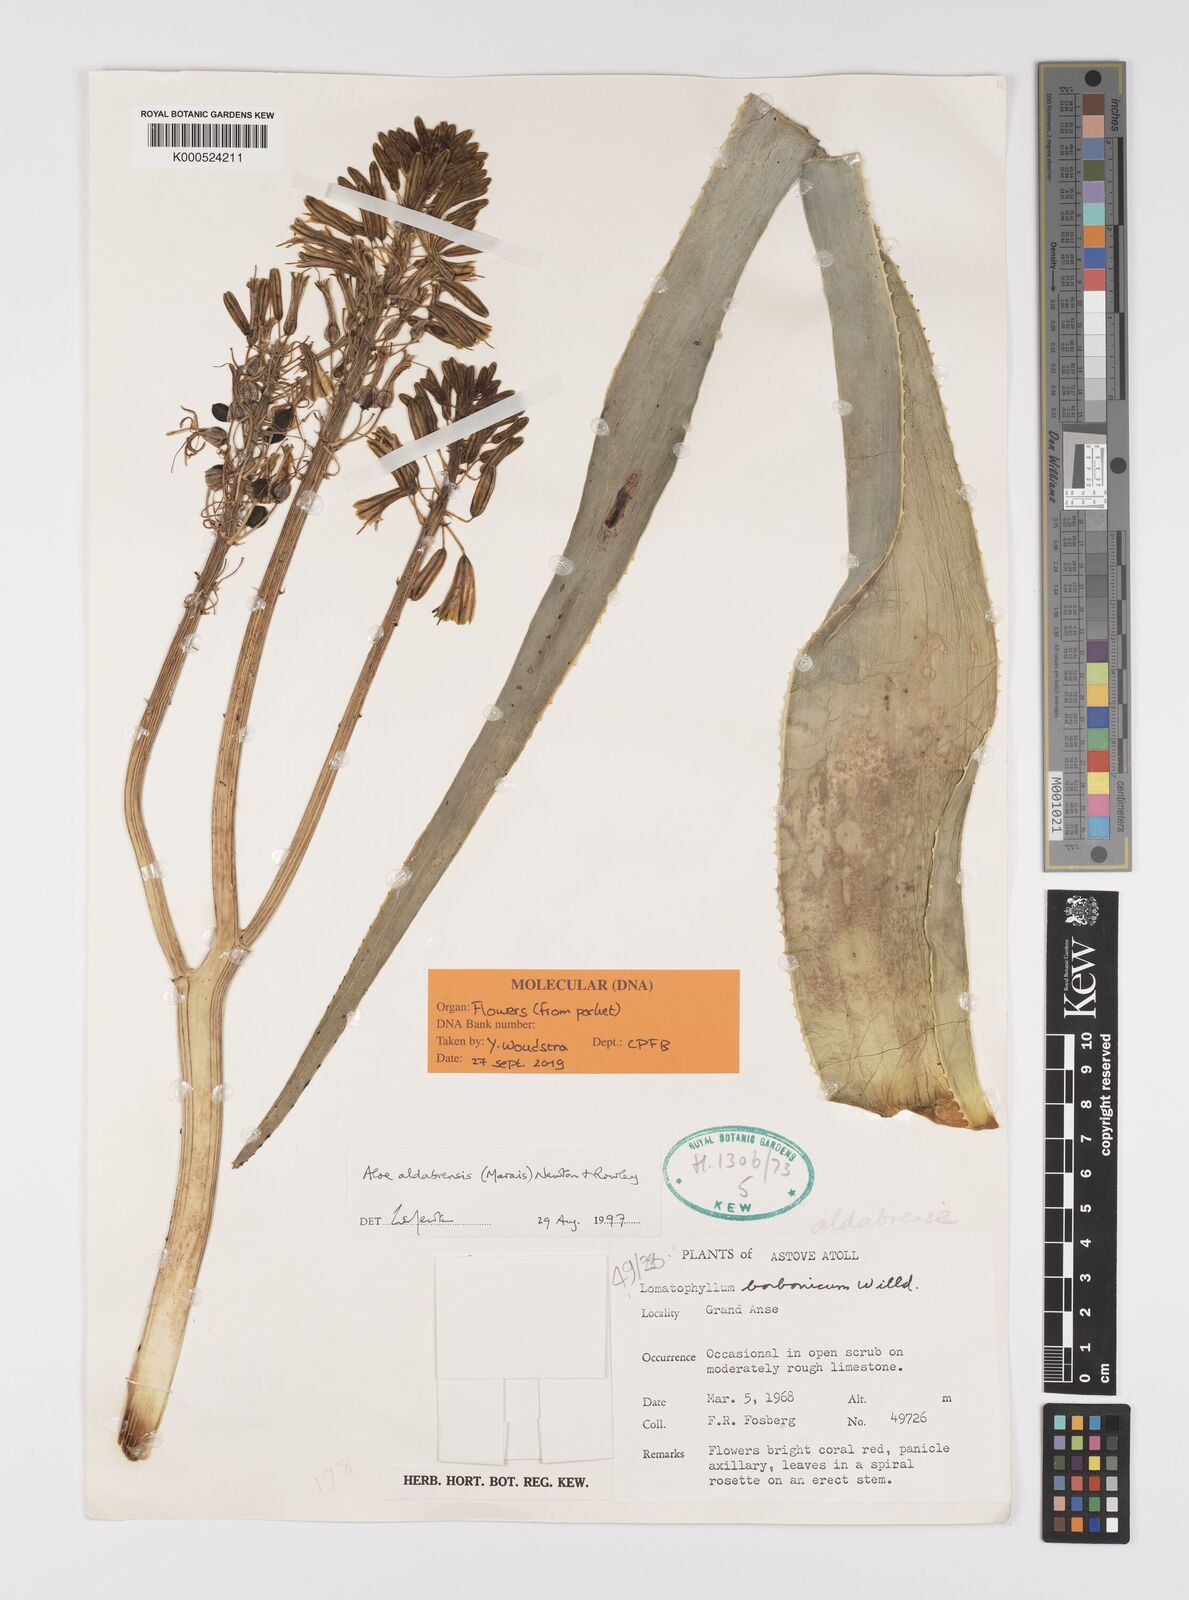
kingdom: Plantae
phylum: Tracheophyta
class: Liliopsida
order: Asparagales
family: Asphodelaceae
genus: Aloe
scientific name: Aloe aldabrensis
